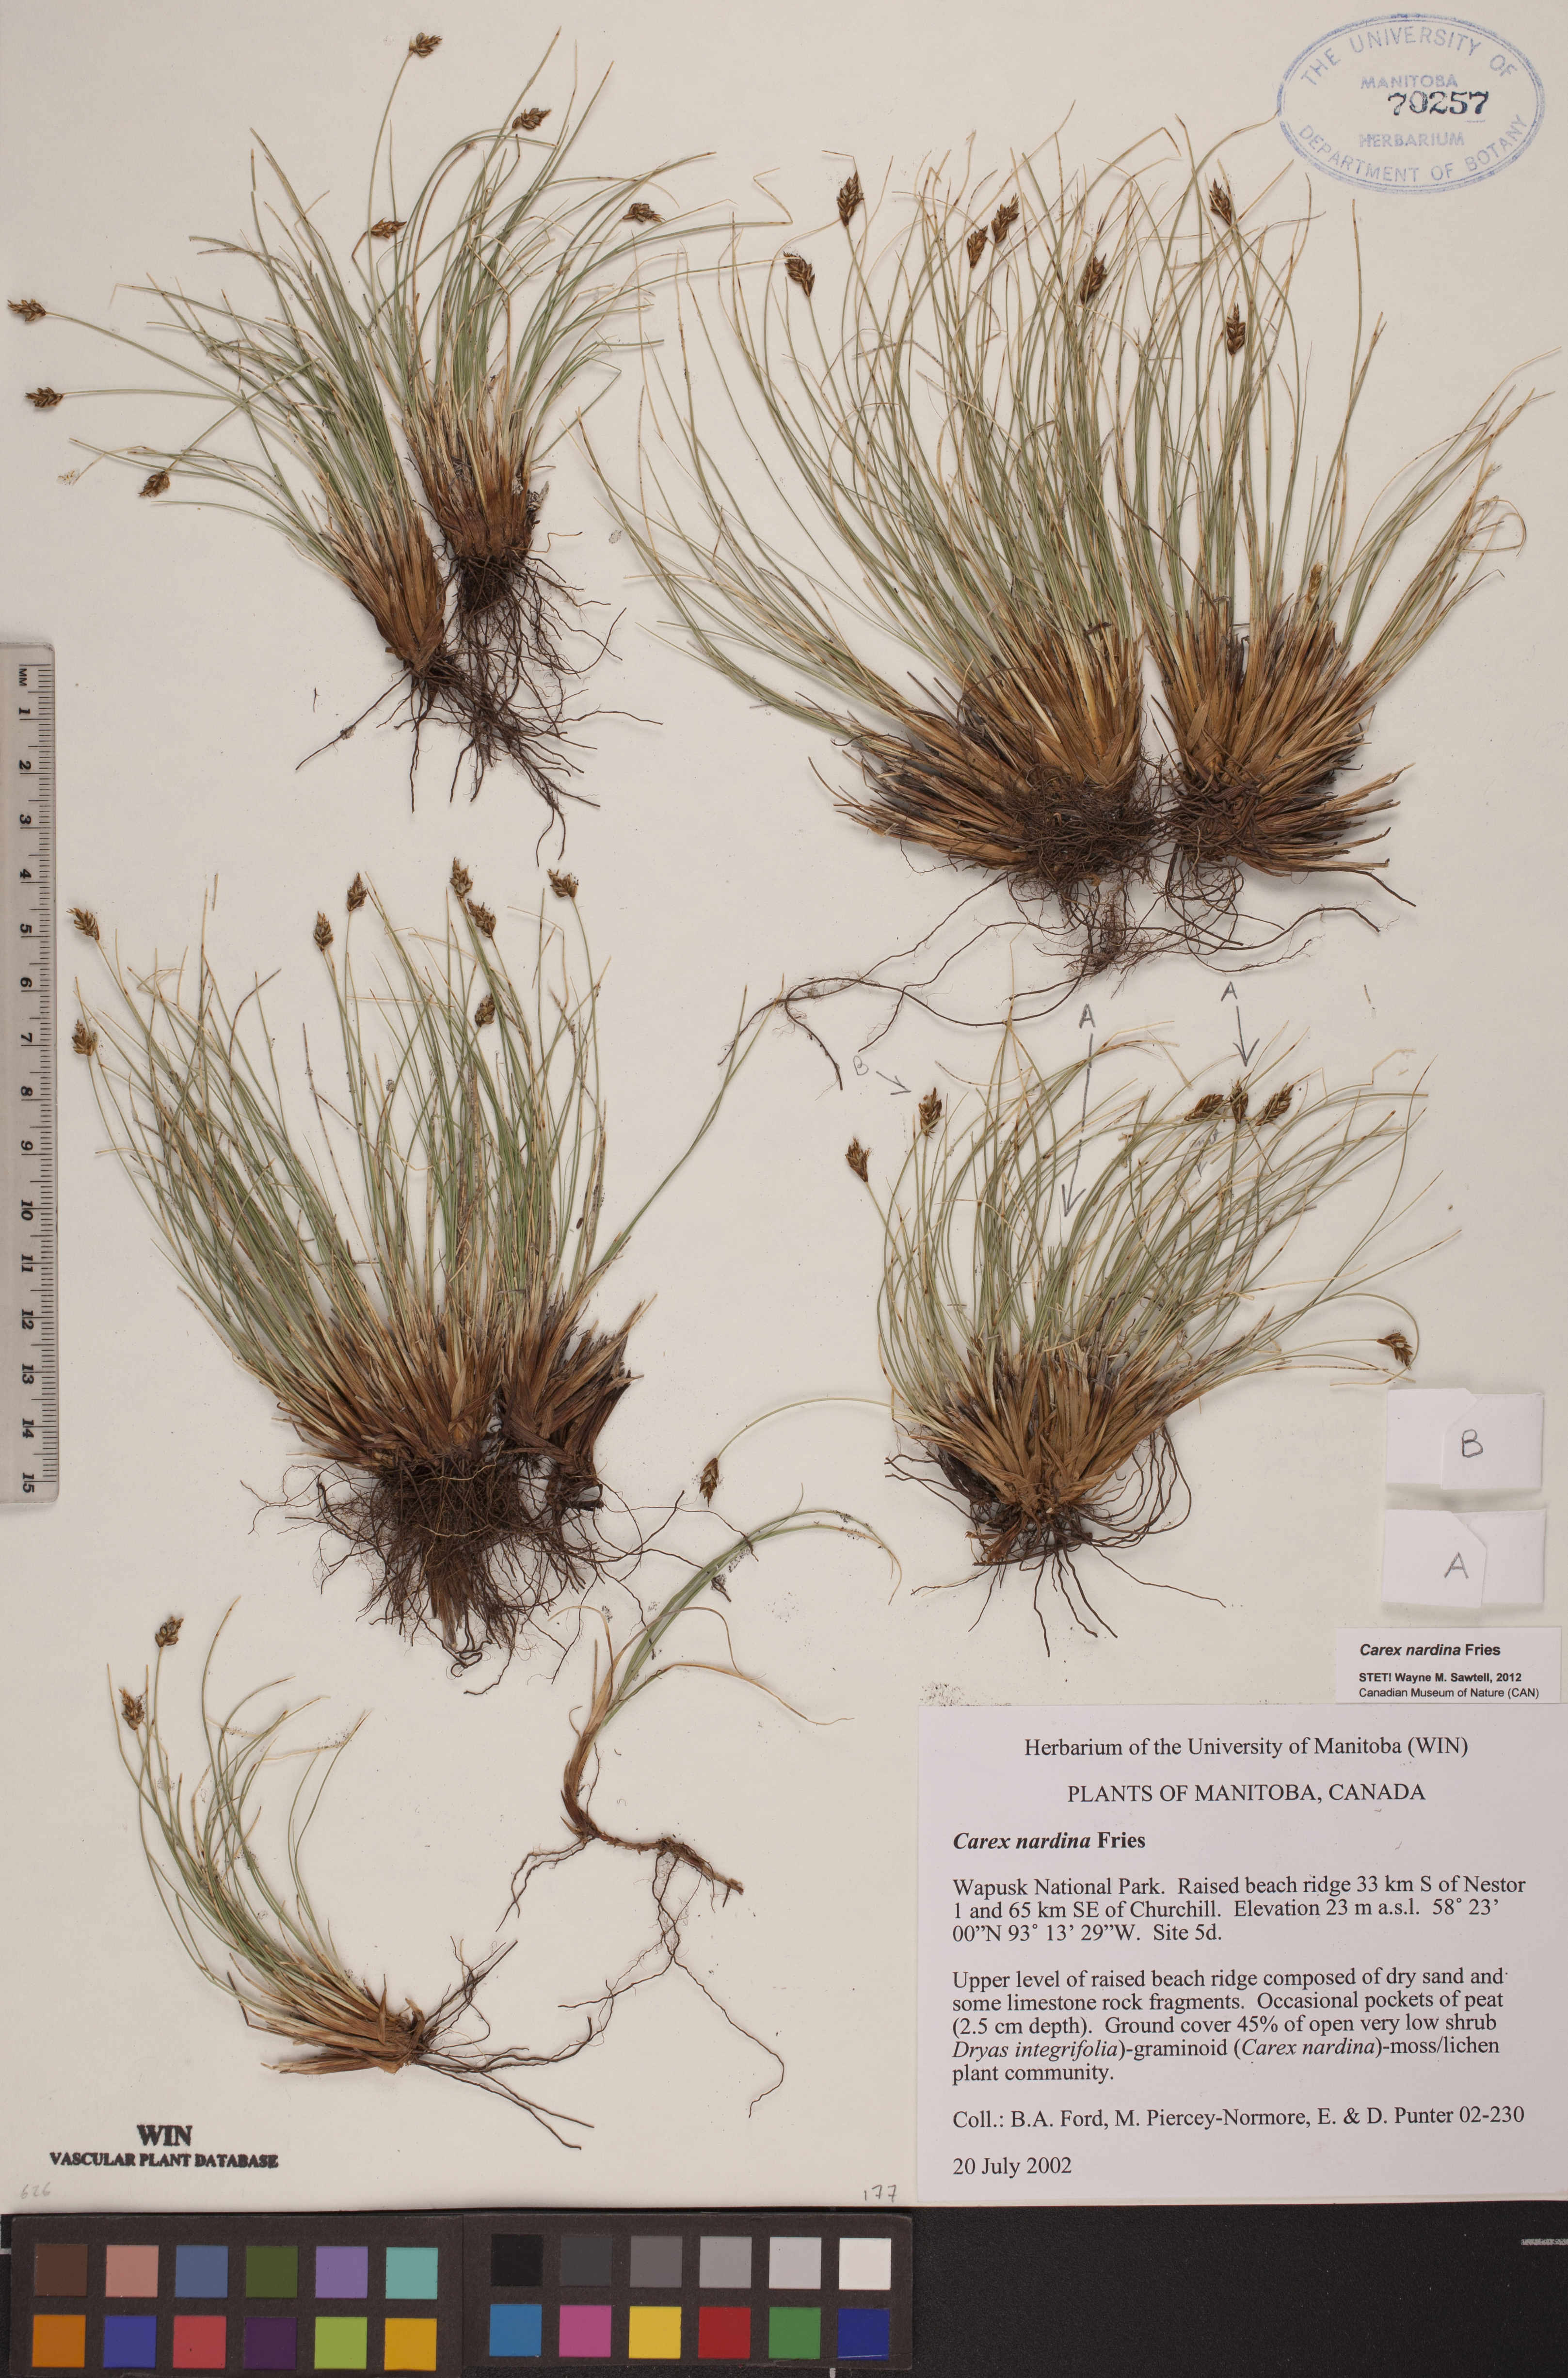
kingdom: Plantae
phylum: Tracheophyta
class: Liliopsida
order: Poales
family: Cyperaceae
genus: Carex
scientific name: Carex nardina
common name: Nard sedge
